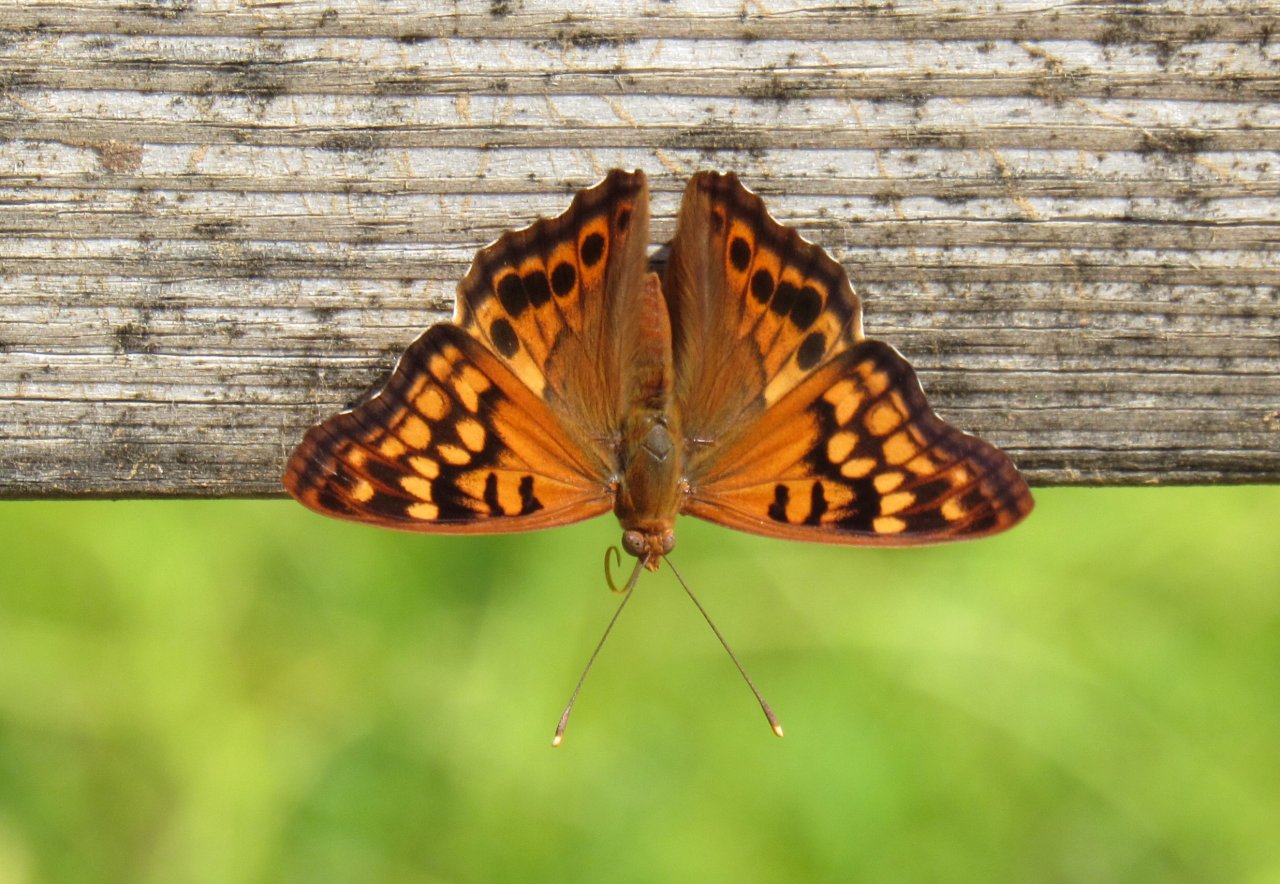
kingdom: Animalia
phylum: Arthropoda
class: Insecta
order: Lepidoptera
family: Nymphalidae
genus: Asterocampa
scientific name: Asterocampa clyton
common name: Tawny Emperor
